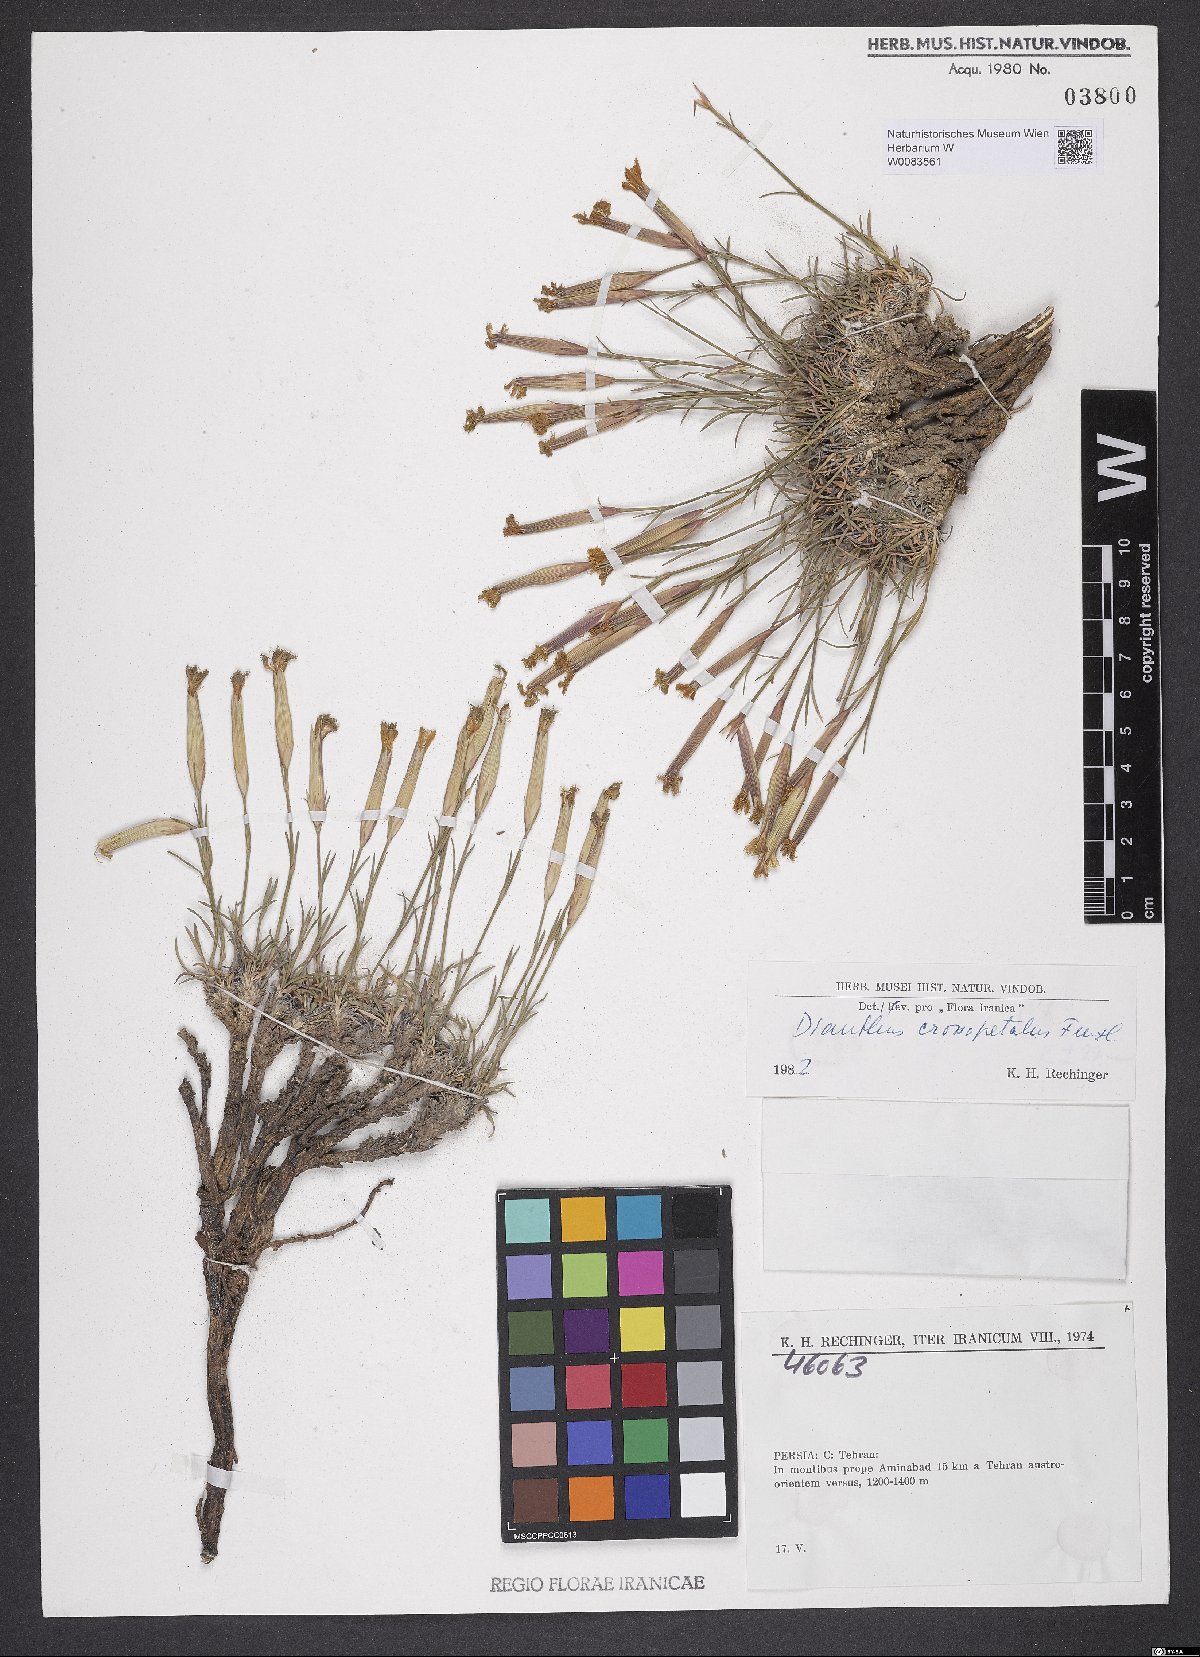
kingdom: Plantae
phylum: Tracheophyta
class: Magnoliopsida
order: Caryophyllales
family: Caryophyllaceae
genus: Dianthus
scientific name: Dianthus crossopetalus
